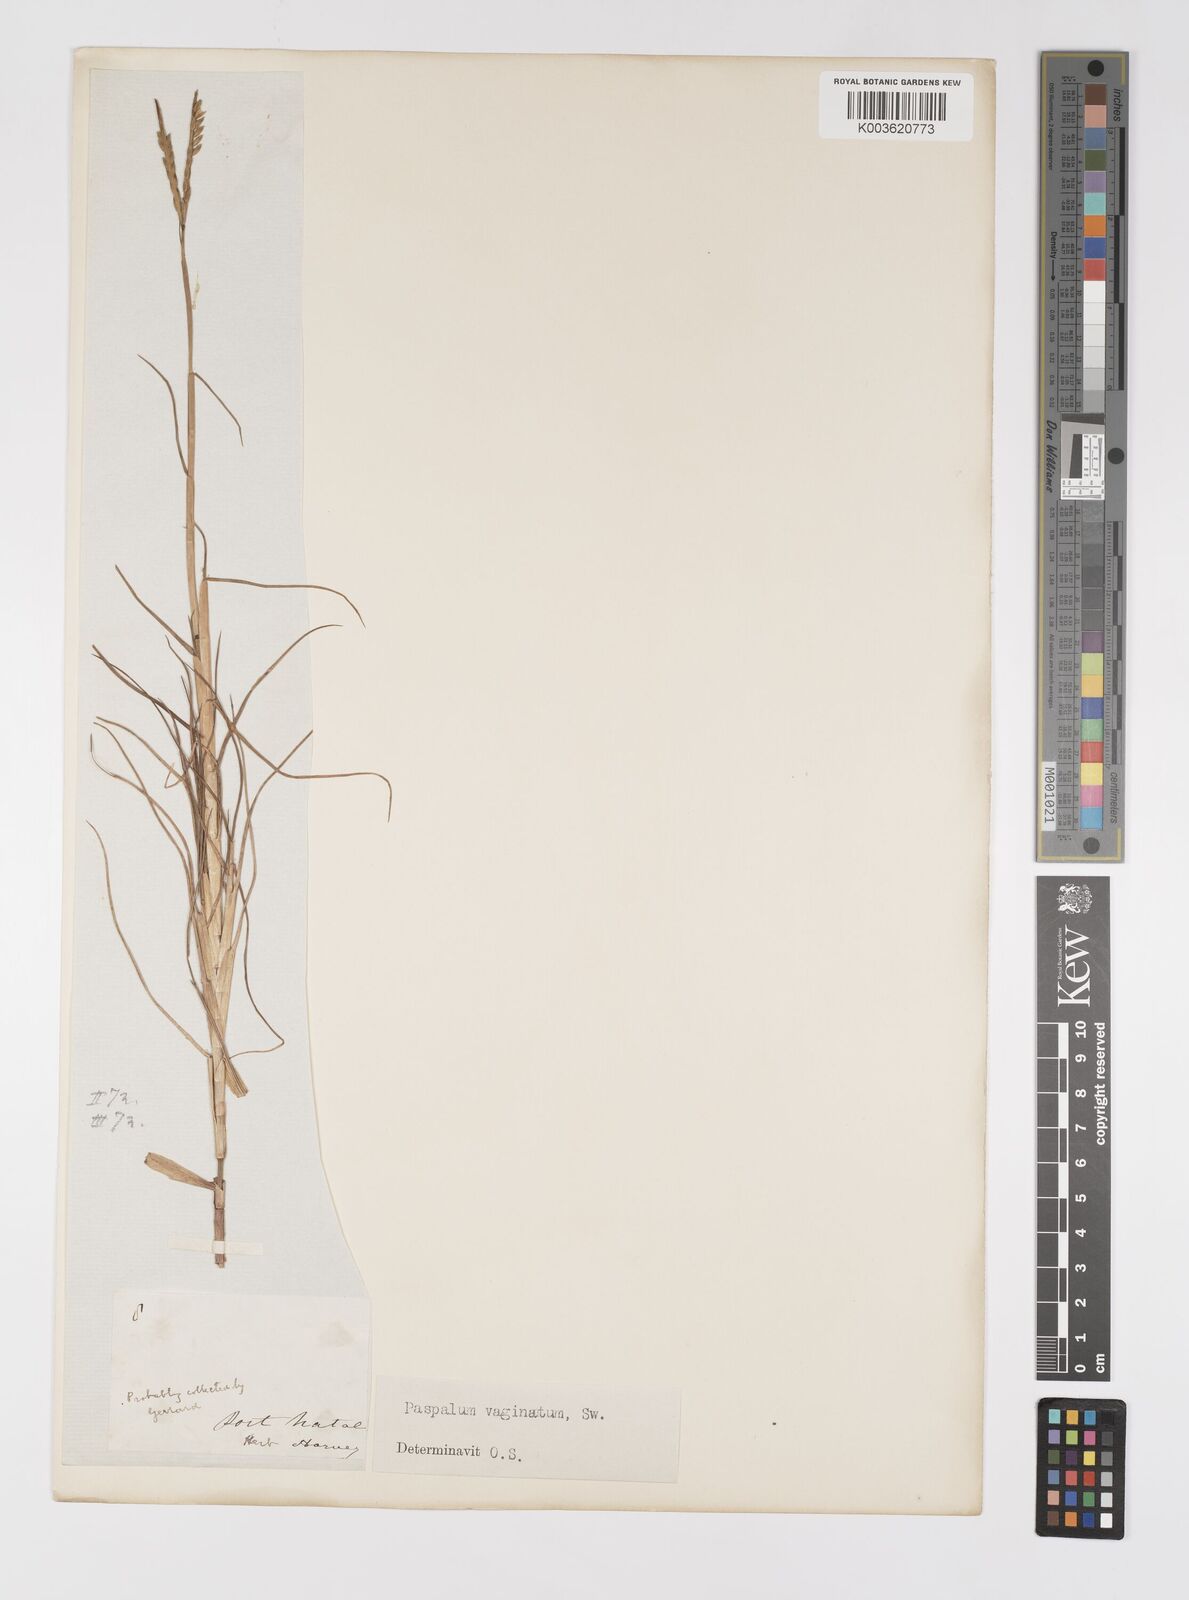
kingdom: Plantae
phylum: Tracheophyta
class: Liliopsida
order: Poales
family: Poaceae
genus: Paspalum
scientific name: Paspalum vaginatum
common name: Seashore paspalum
